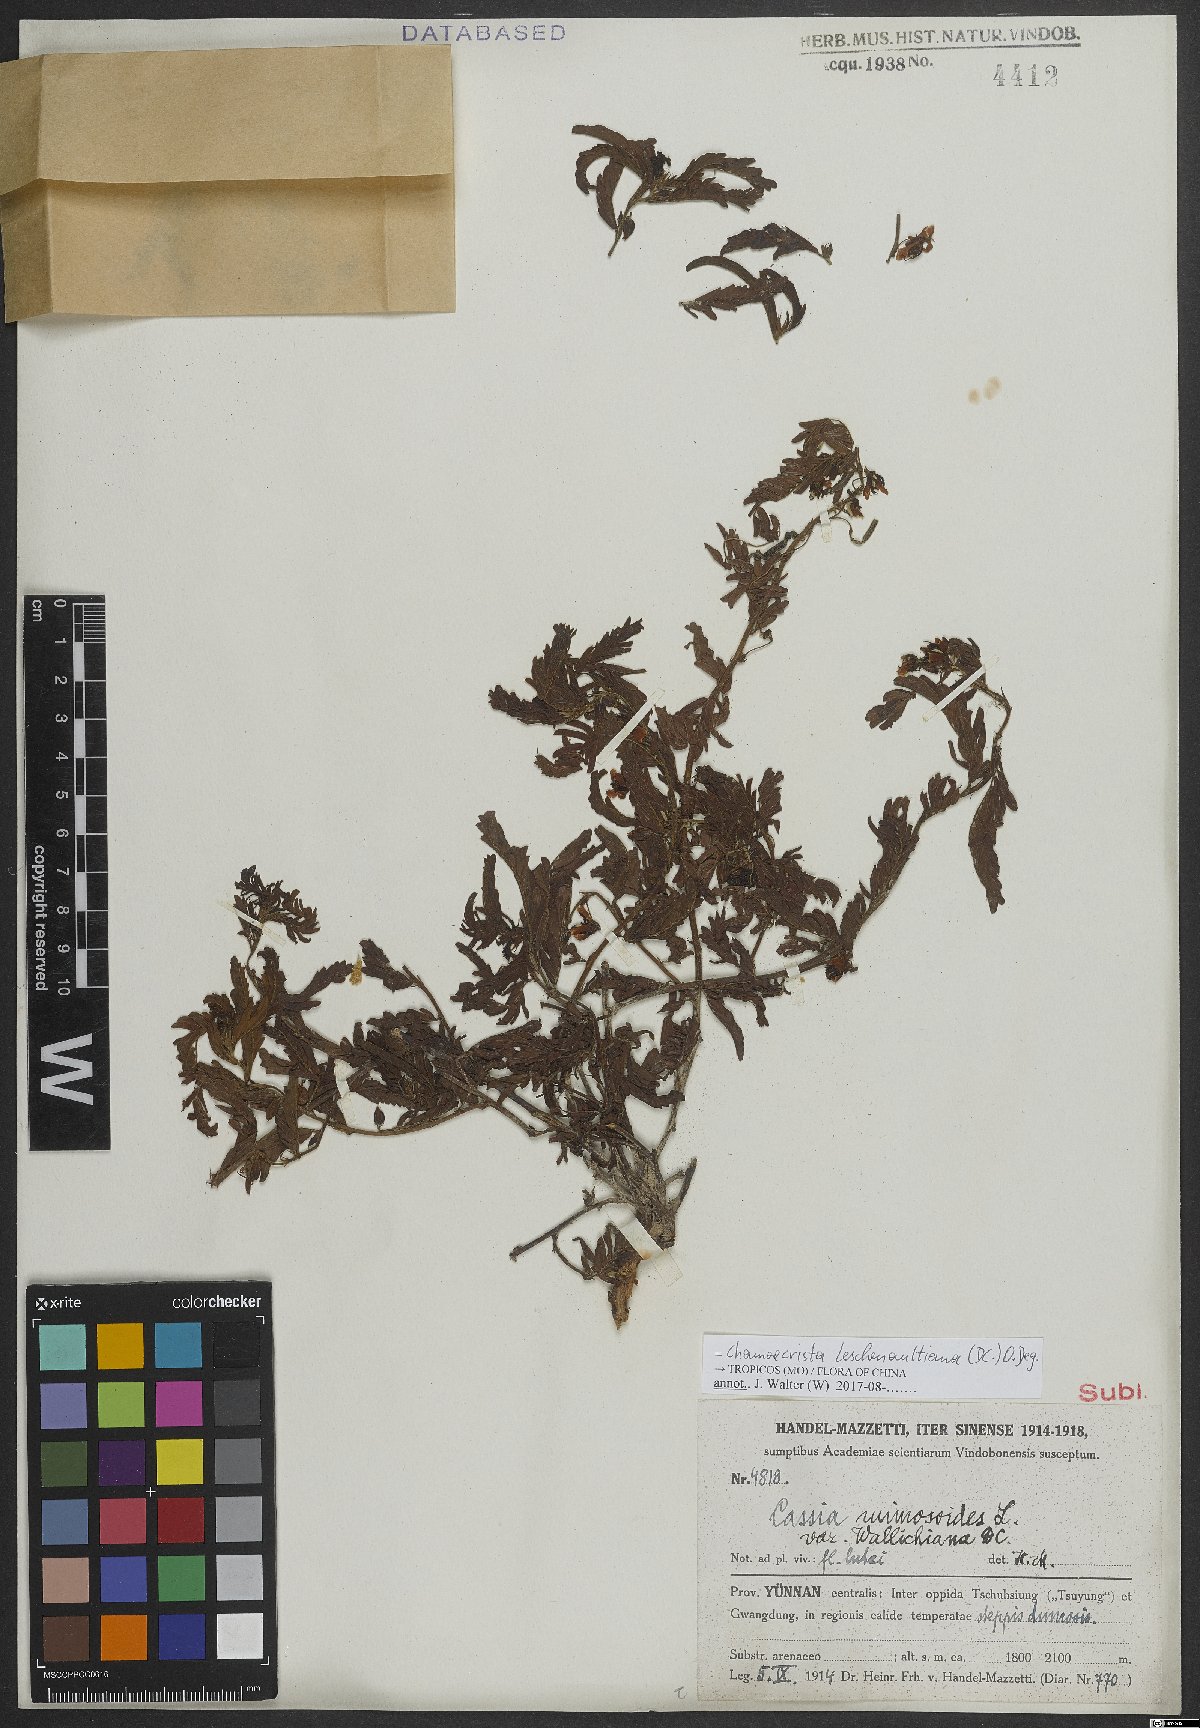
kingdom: Plantae
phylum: Tracheophyta
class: Magnoliopsida
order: Fabales
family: Fabaceae
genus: Chamaecrista
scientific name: Chamaecrista leschenaultiana
